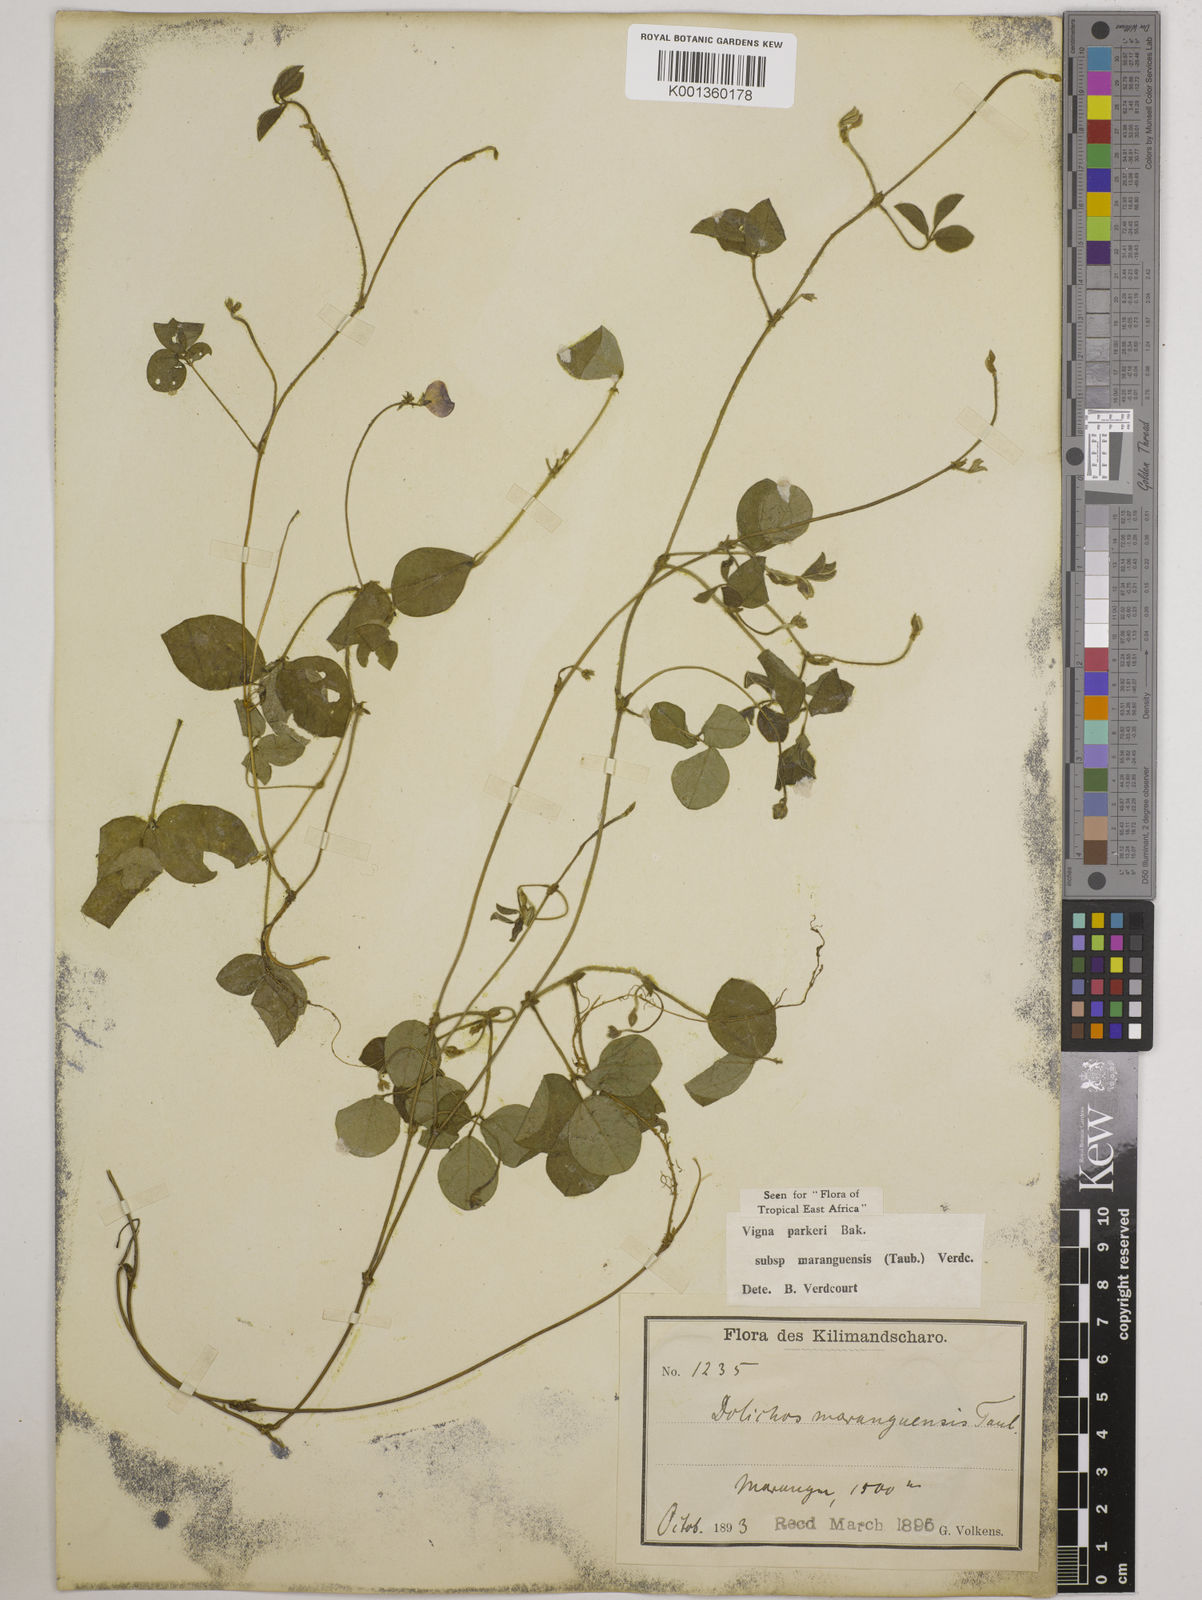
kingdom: Plantae
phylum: Tracheophyta
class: Magnoliopsida
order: Fabales
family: Fabaceae
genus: Vigna
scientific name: Vigna
